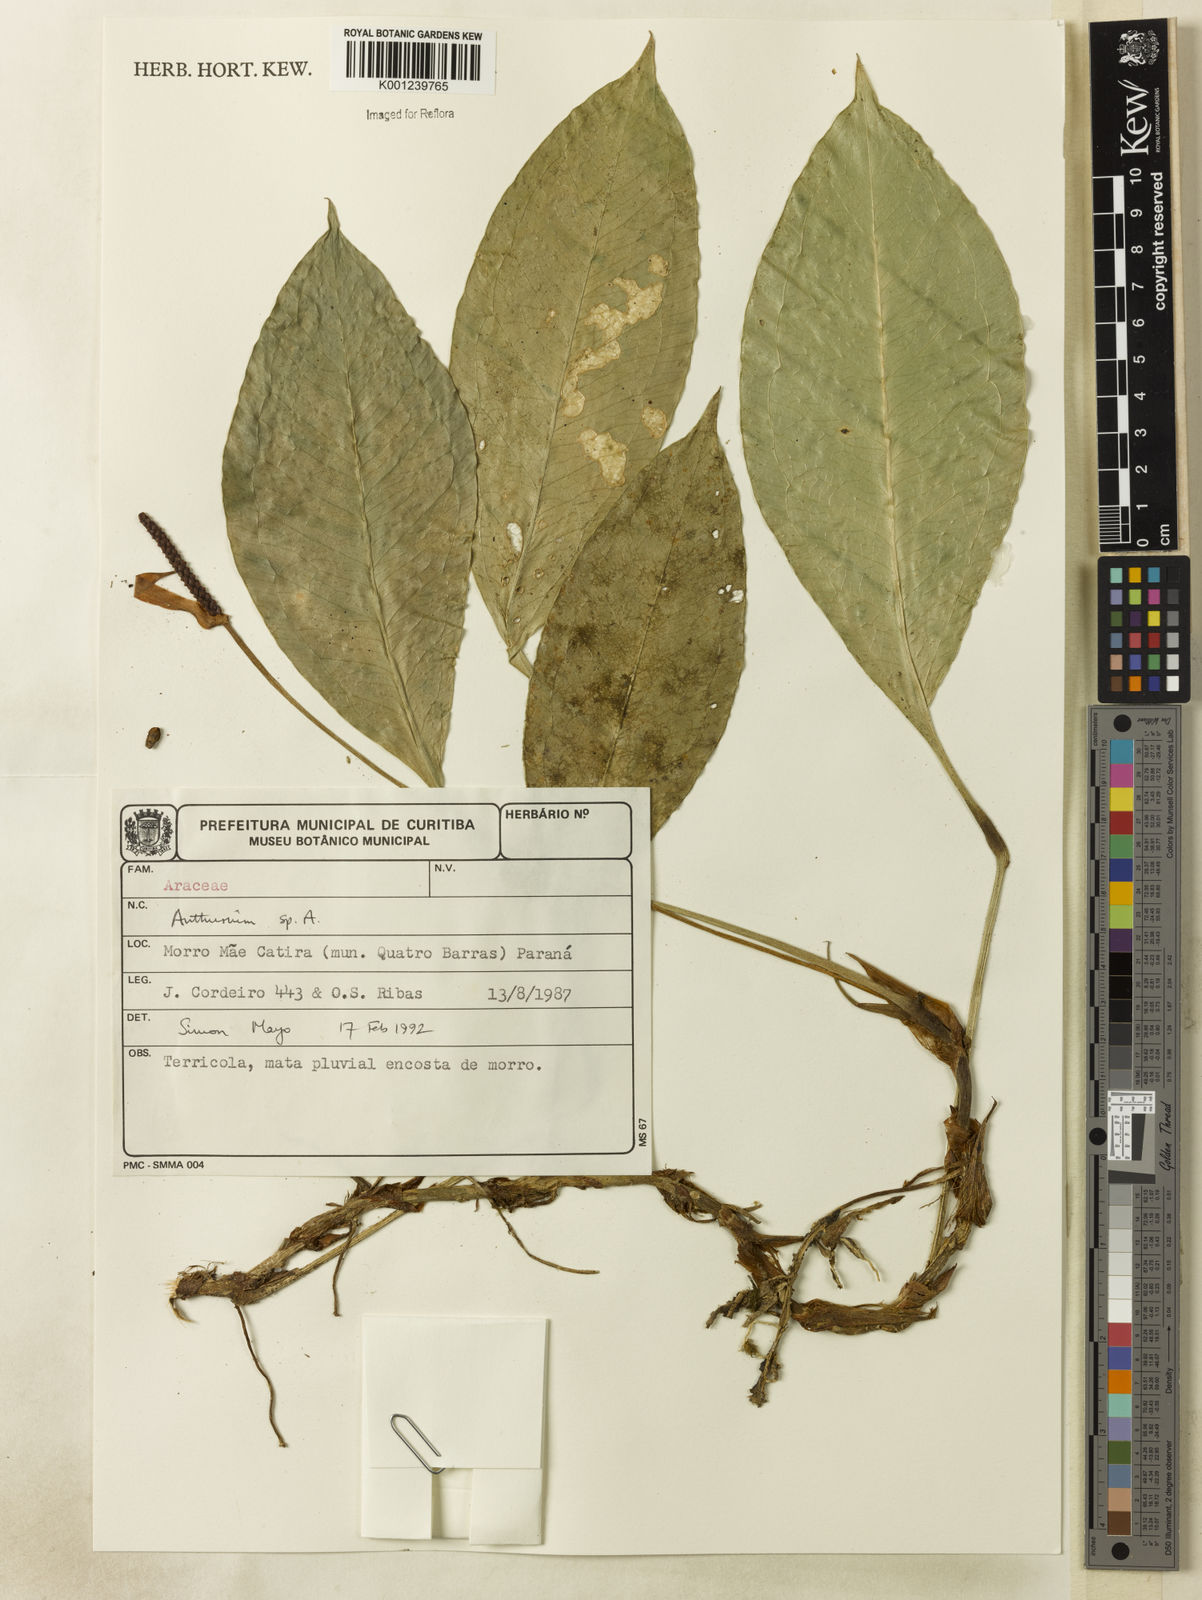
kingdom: Plantae
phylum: Tracheophyta
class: Liliopsida
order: Alismatales
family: Araceae
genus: Anthurium
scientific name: Anthurium
